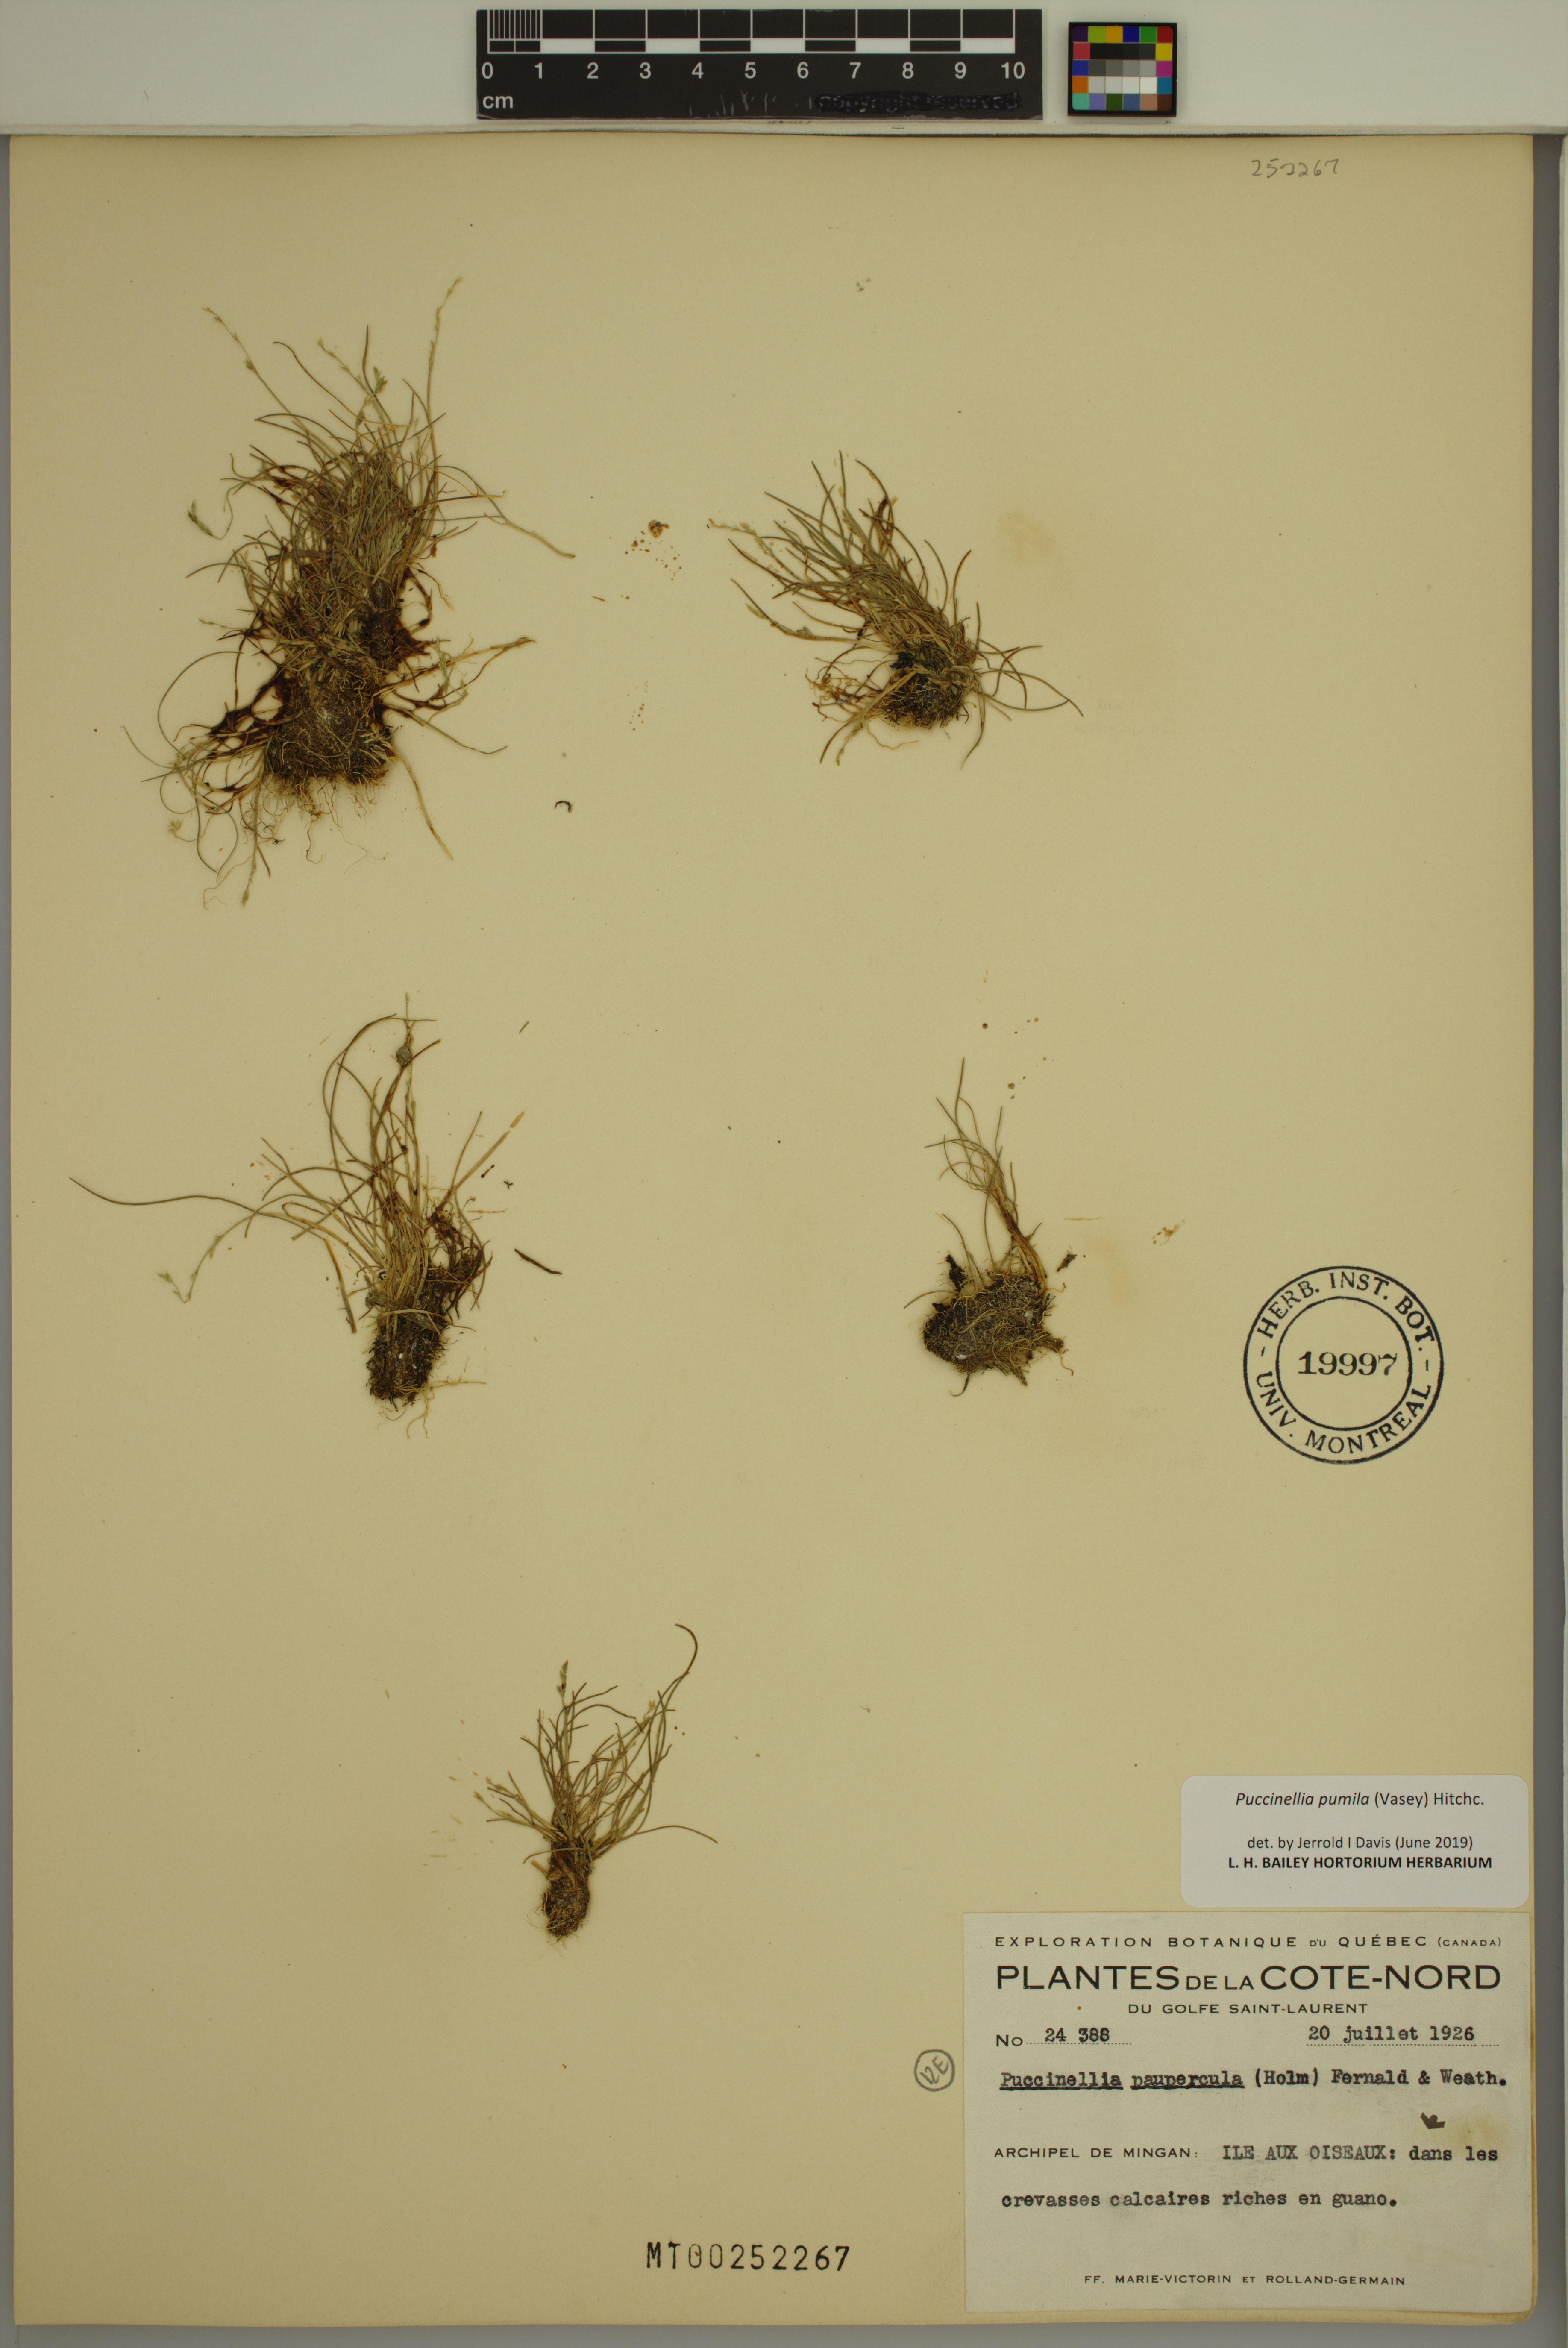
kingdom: Plantae
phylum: Tracheophyta
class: Liliopsida
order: Poales
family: Poaceae
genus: Puccinellia
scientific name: Puccinellia pumila
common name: Dwarf alkaligrass
